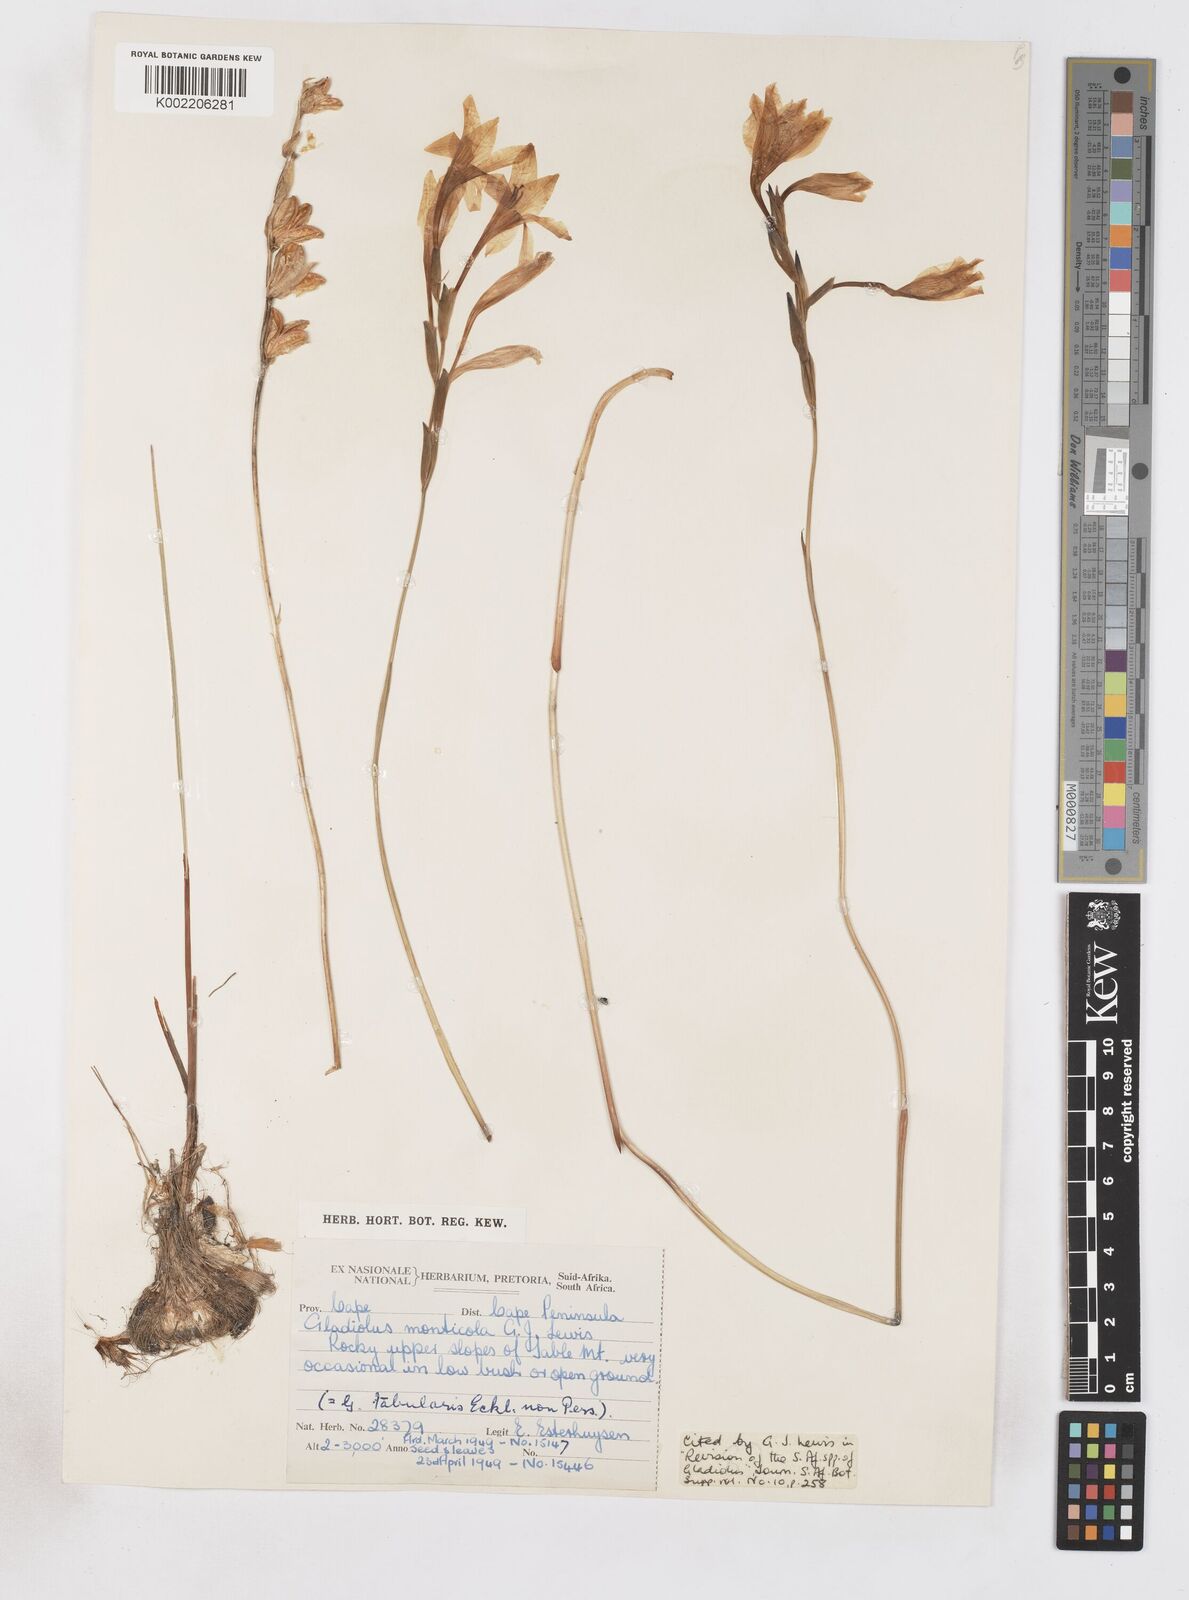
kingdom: Plantae
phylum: Tracheophyta
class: Liliopsida
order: Asparagales
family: Iridaceae
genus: Gladiolus
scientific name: Gladiolus
